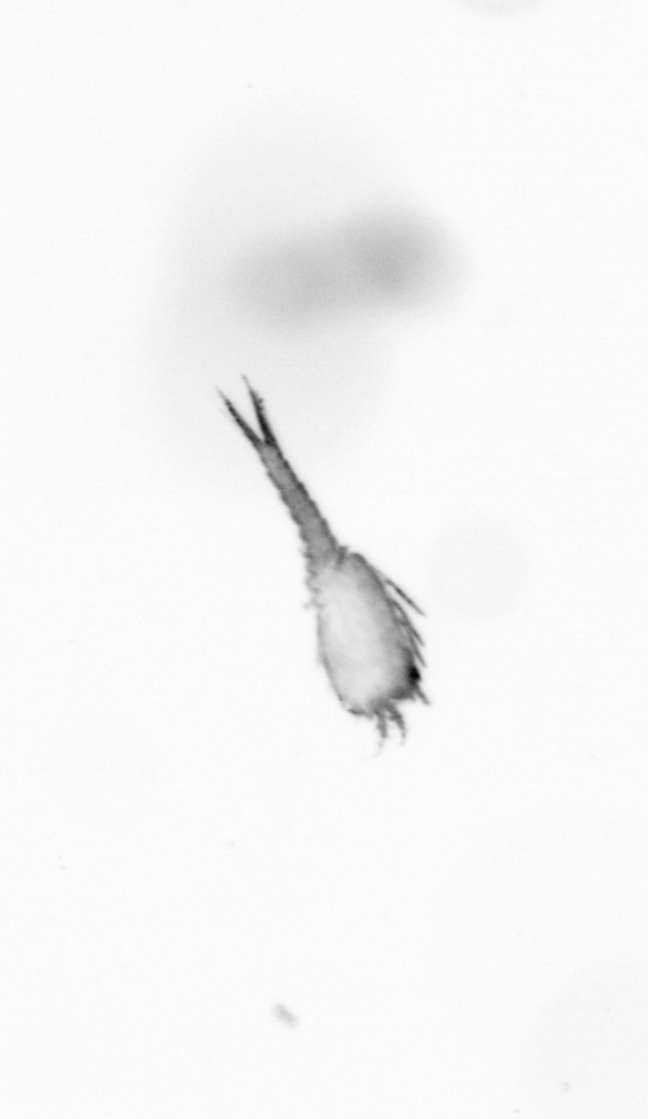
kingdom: Chromista
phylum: Ochrophyta
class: Bacillariophyceae
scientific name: Bacillariophyceae
